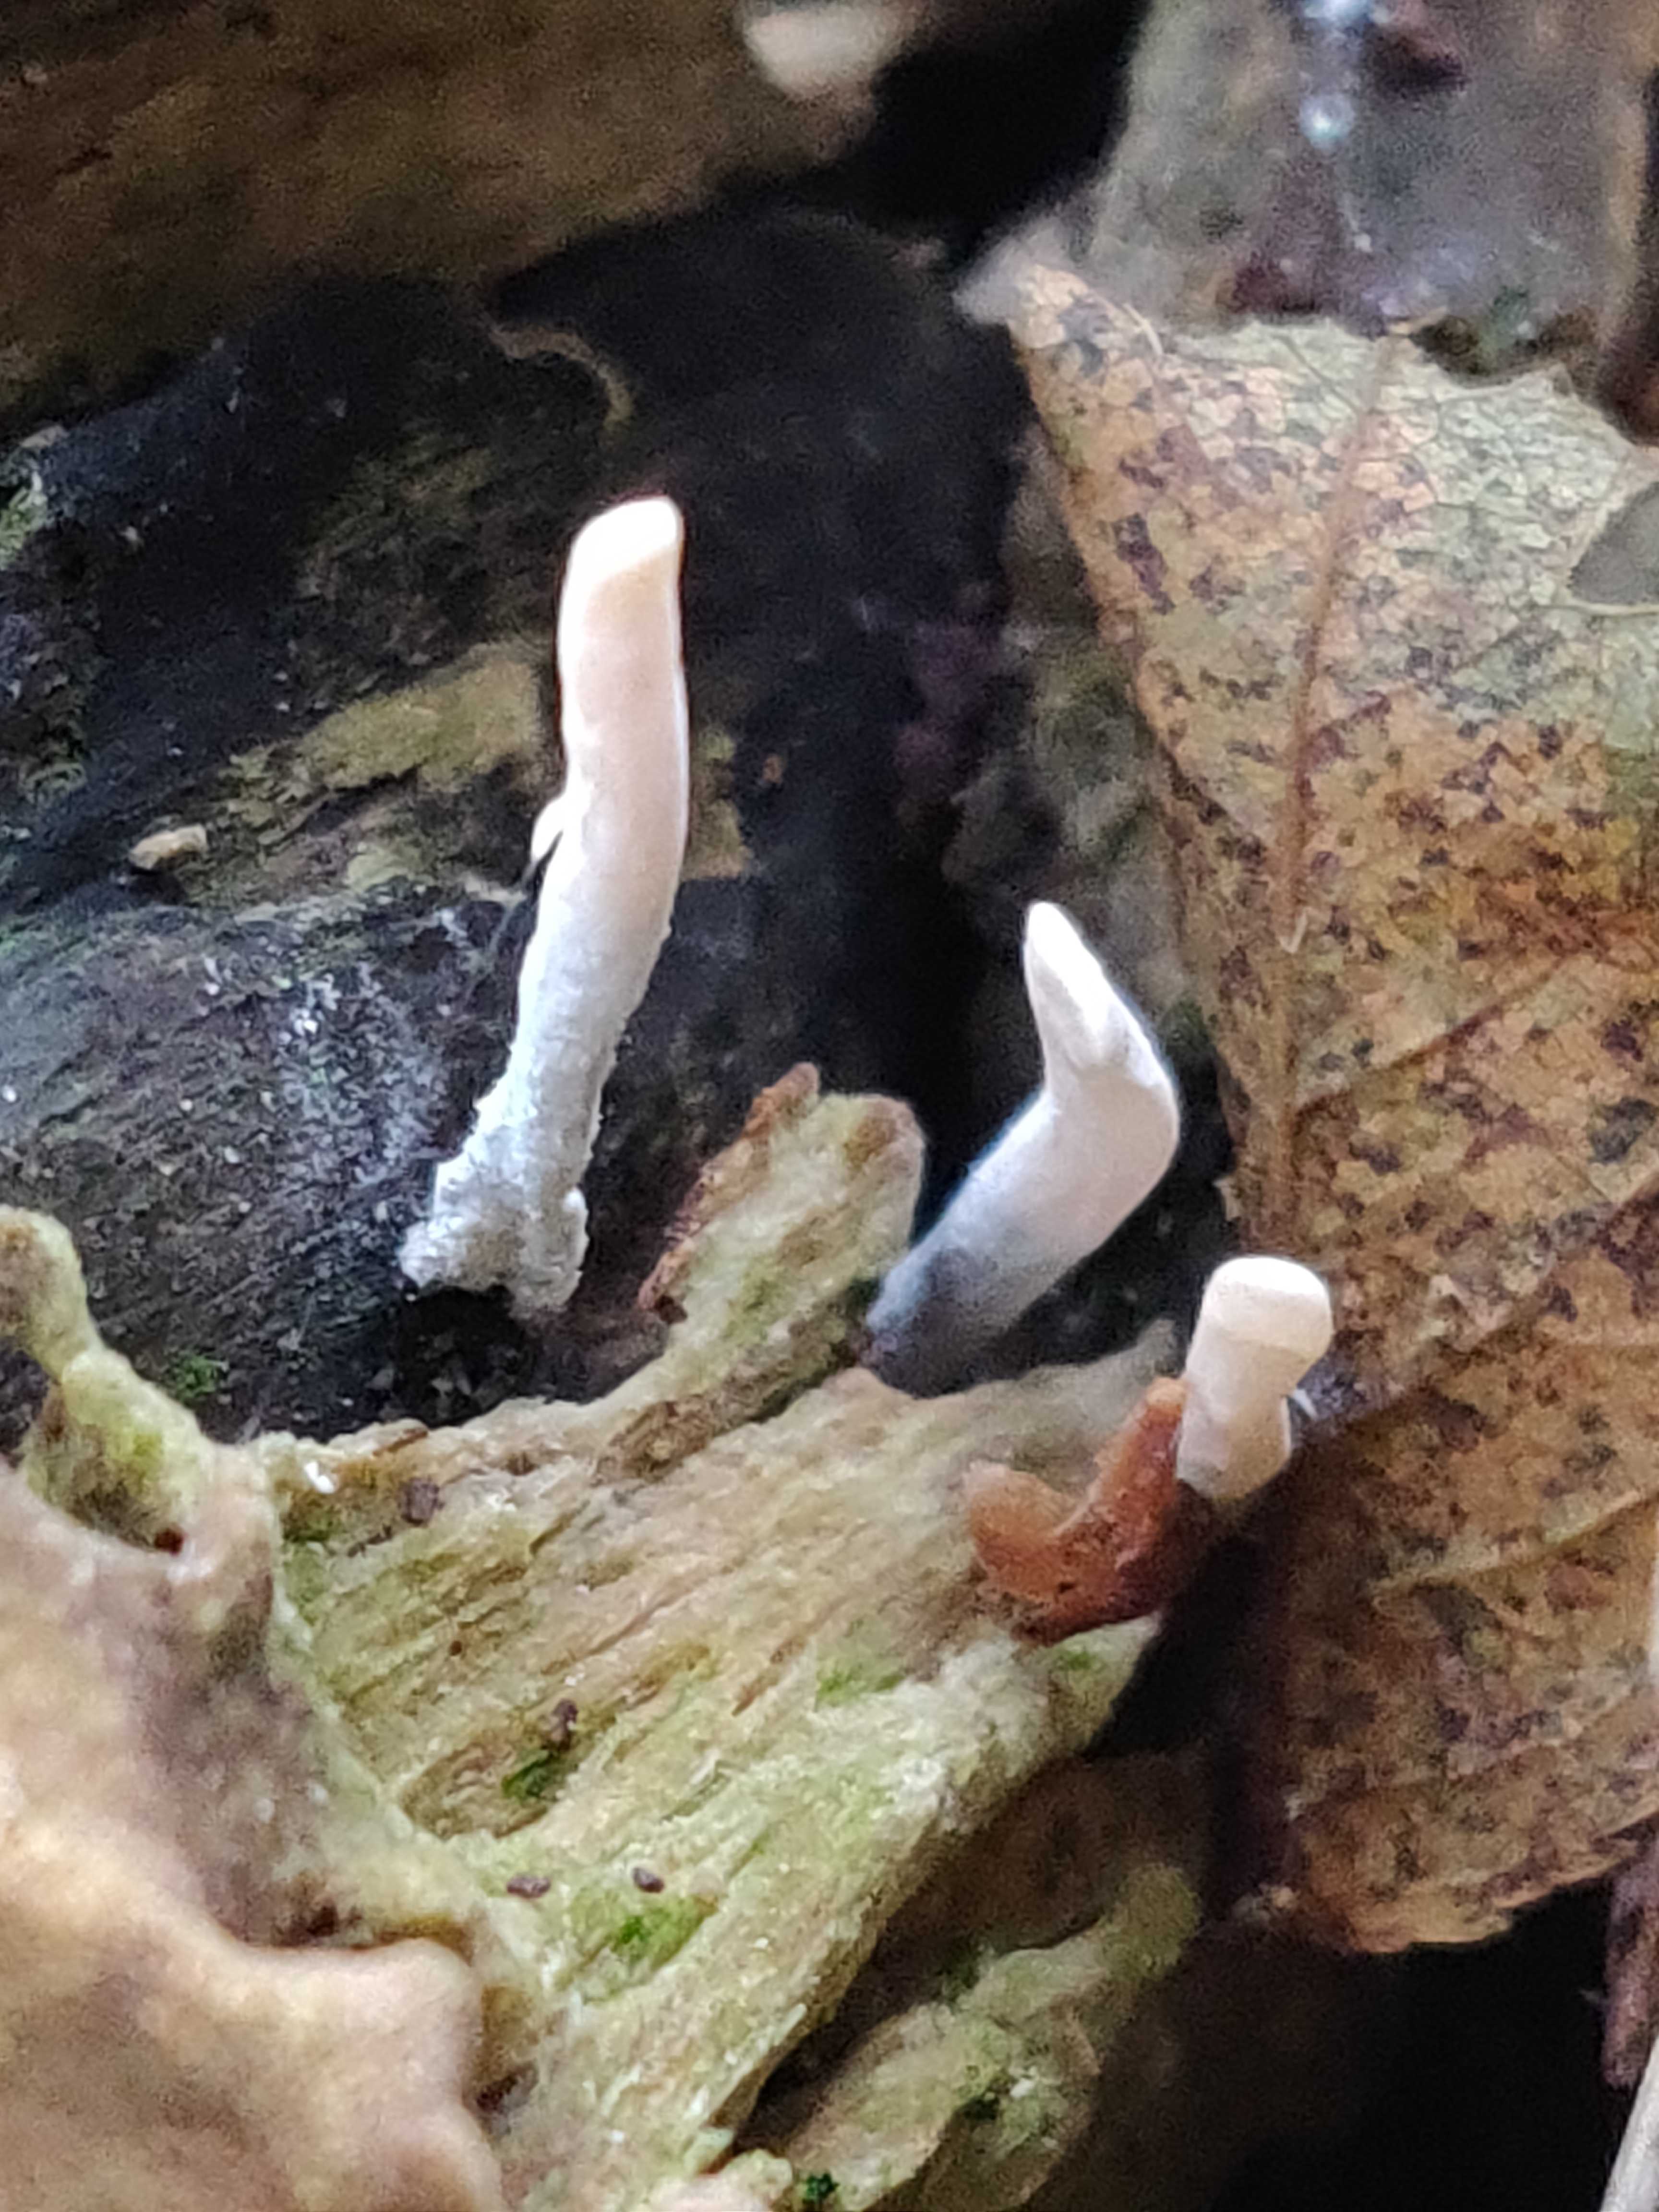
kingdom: Fungi
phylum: Ascomycota
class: Sordariomycetes
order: Xylariales
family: Xylariaceae
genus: Xylaria
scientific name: Xylaria hypoxylon
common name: grenet stødsvamp
